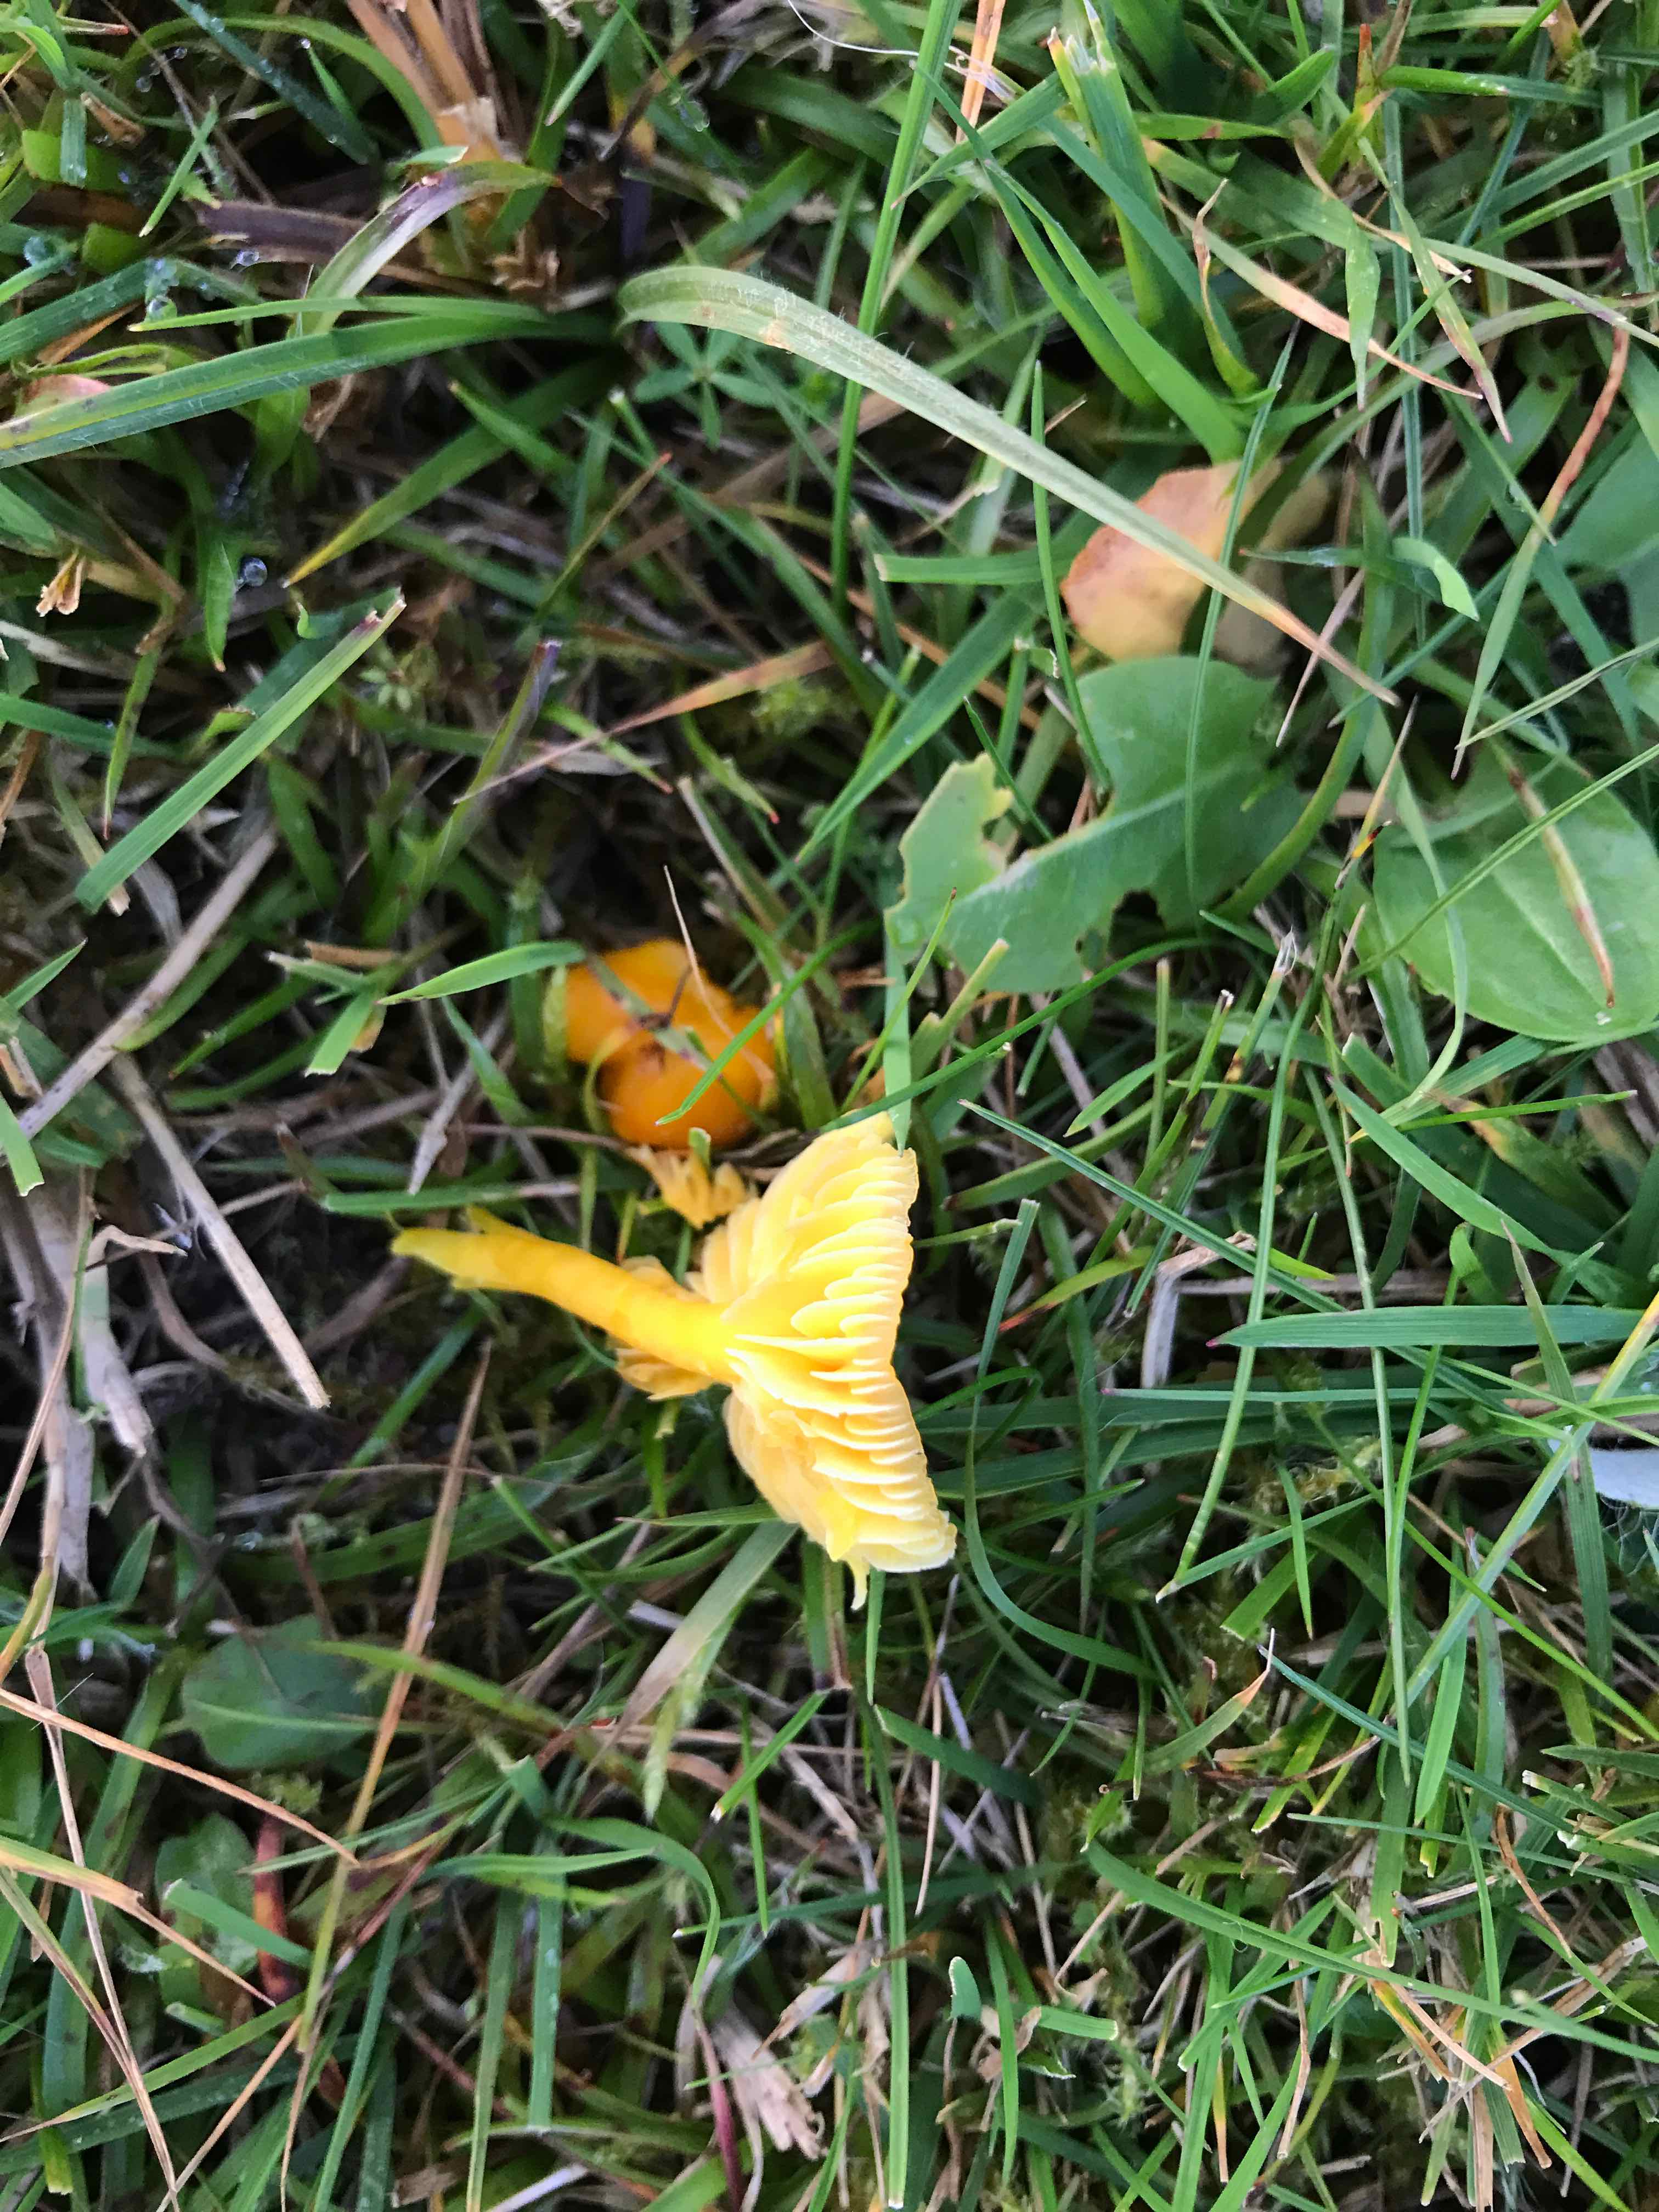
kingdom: Fungi
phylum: Basidiomycota
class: Agaricomycetes
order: Agaricales
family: Hygrophoraceae
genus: Hygrocybe
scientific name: Hygrocybe ceracea
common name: voksgul vokshat
